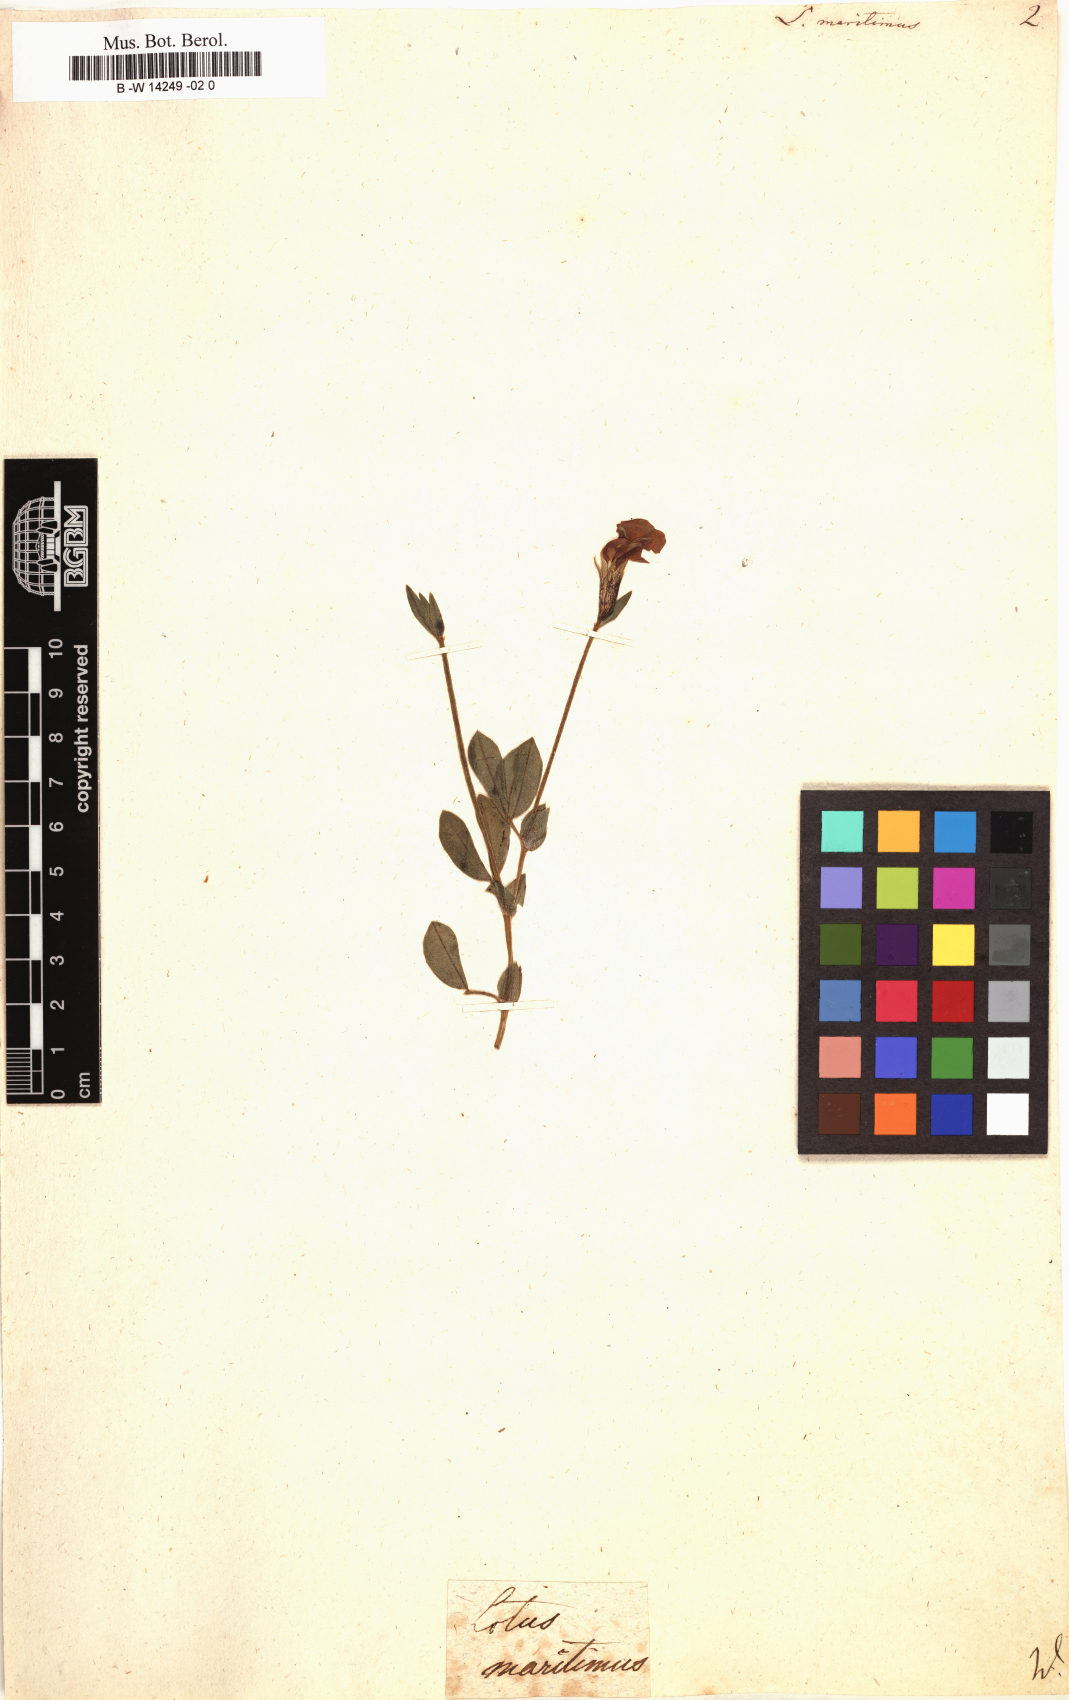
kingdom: Plantae
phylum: Tracheophyta
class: Magnoliopsida
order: Fabales
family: Fabaceae
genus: Lotus
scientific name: Lotus maritimus
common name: Dragon's-teeth
